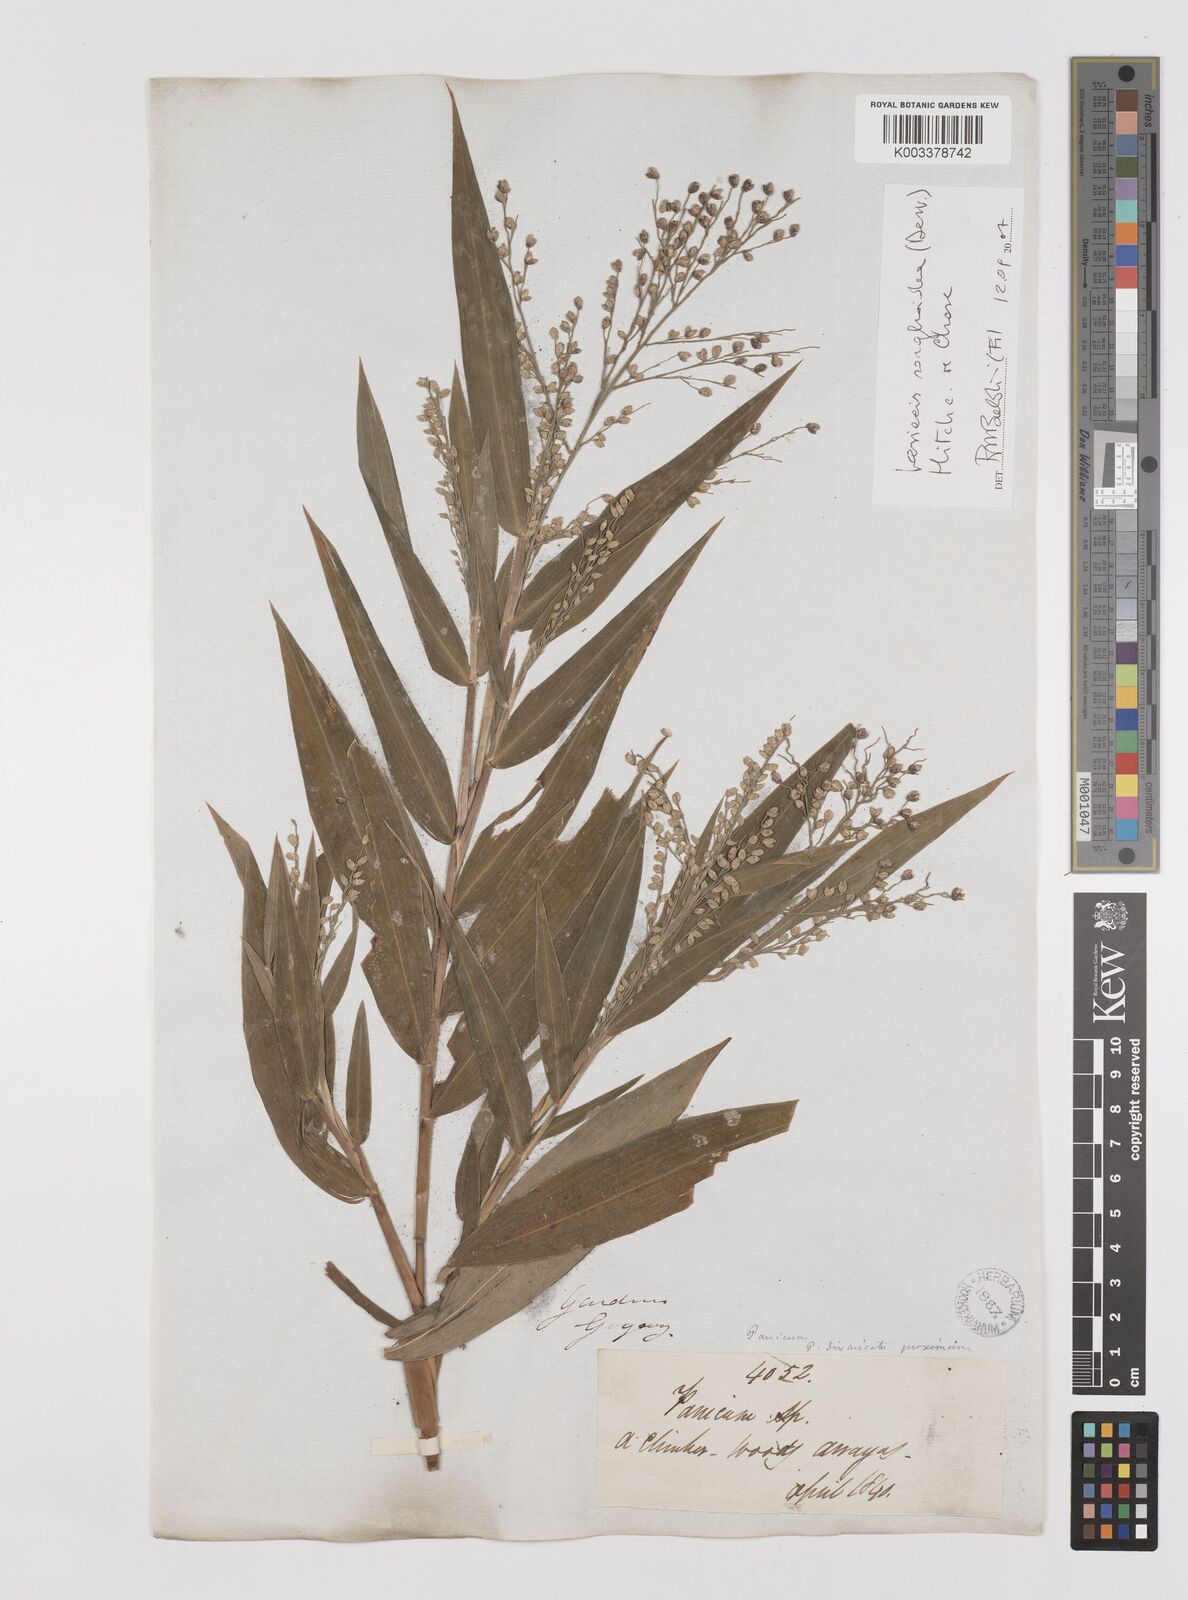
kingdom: Plantae
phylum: Tracheophyta
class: Liliopsida
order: Poales
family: Poaceae
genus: Lasiacis
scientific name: Lasiacis maculata
